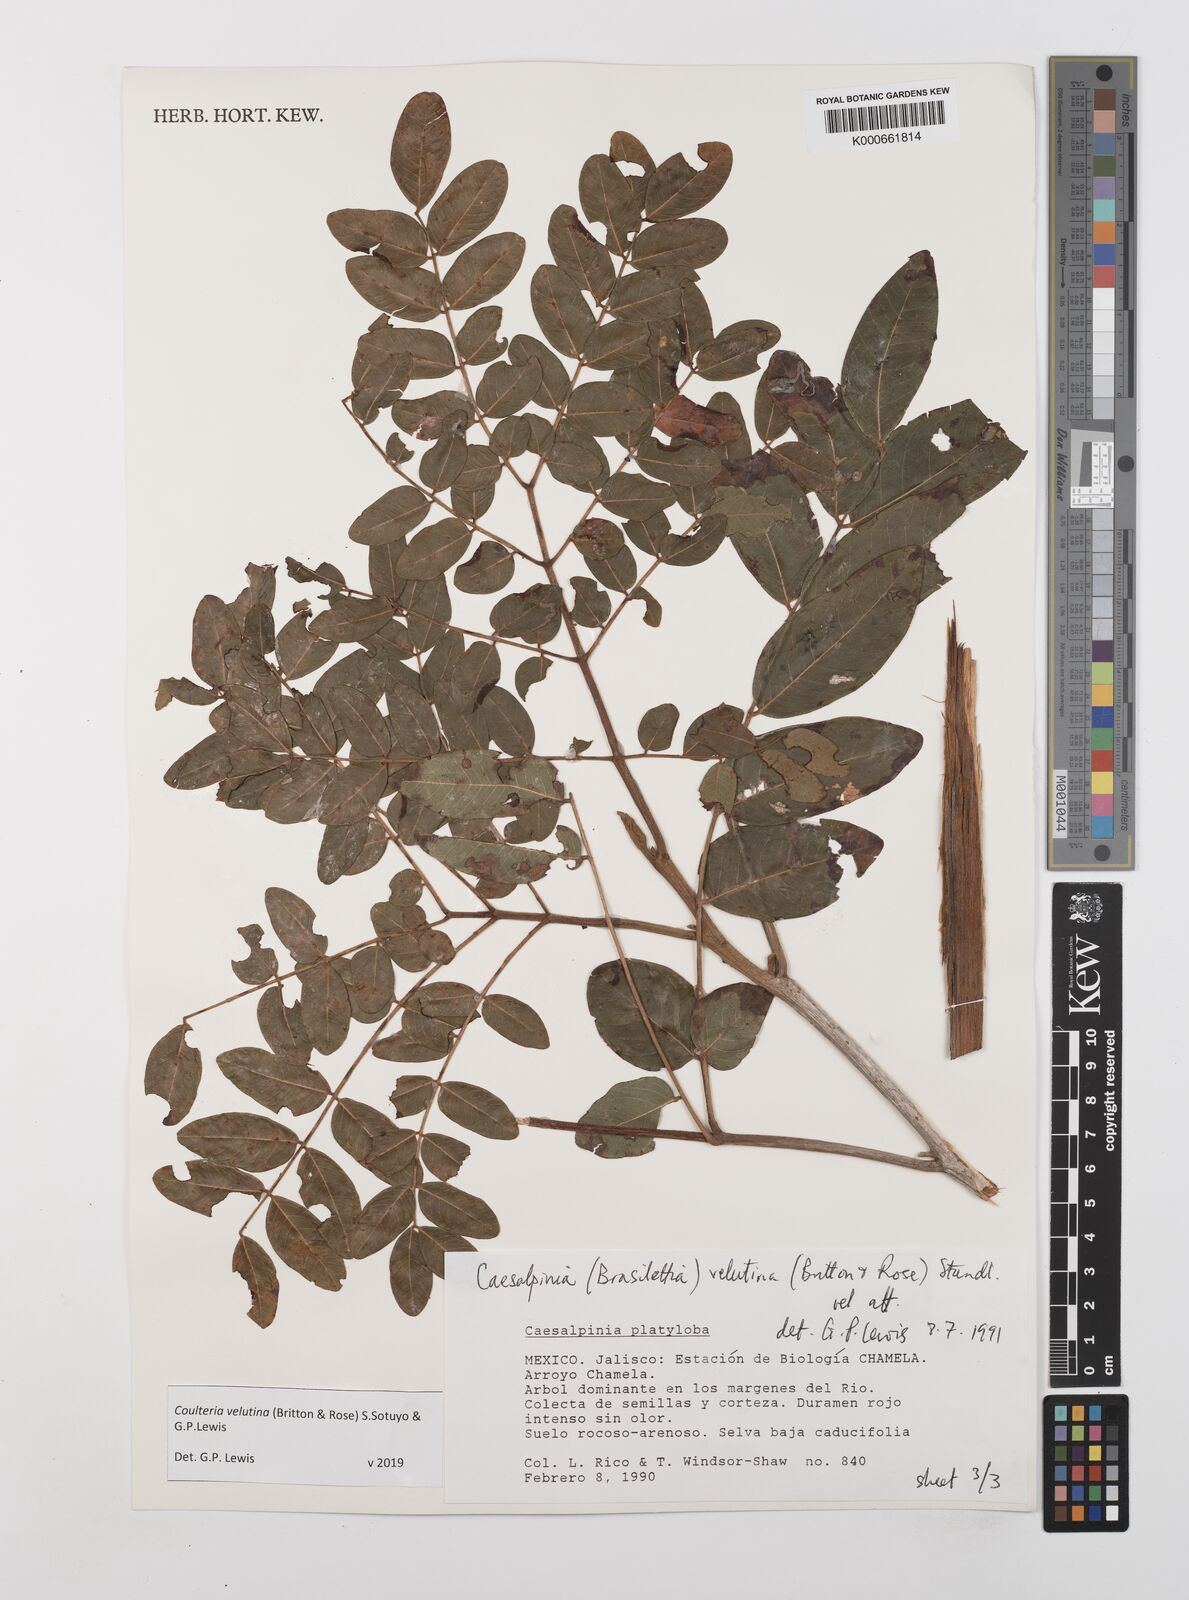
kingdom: Plantae
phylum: Tracheophyta
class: Magnoliopsida
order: Fabales
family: Fabaceae
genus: Coulteria
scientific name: Coulteria velutina
